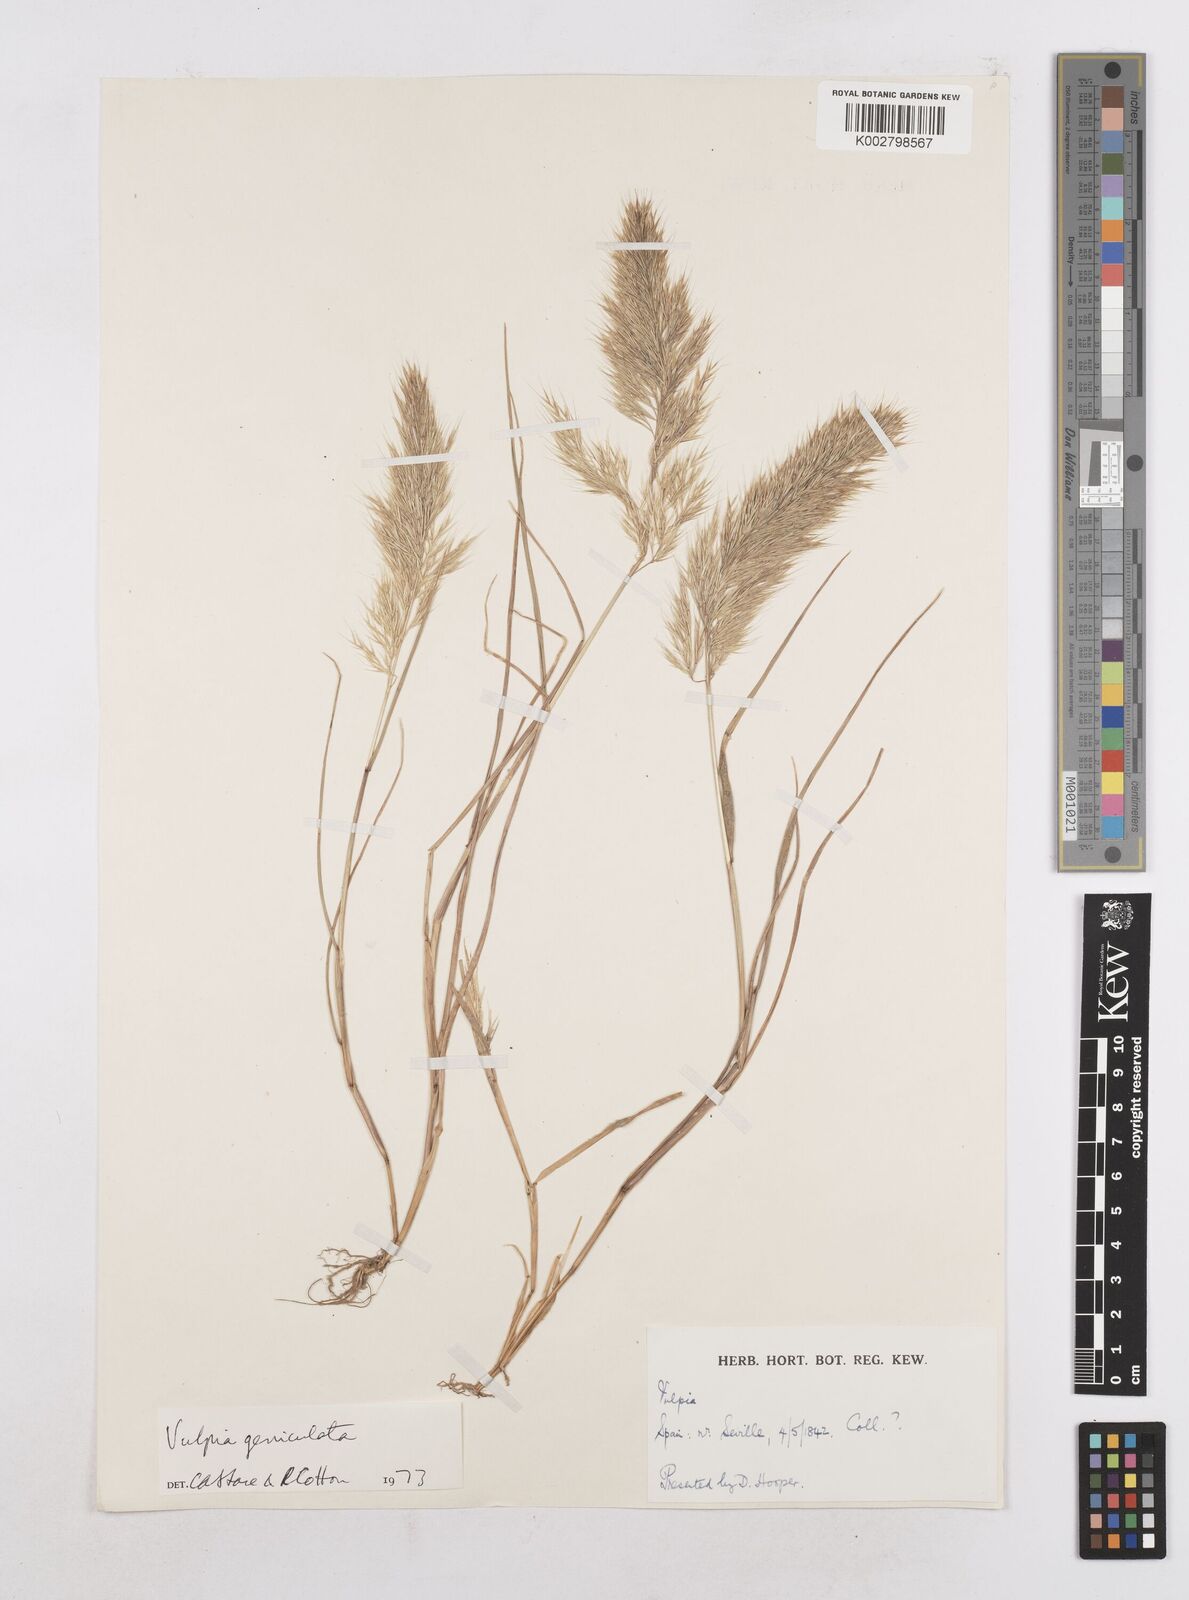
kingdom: Plantae
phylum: Tracheophyta
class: Liliopsida
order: Poales
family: Poaceae
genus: Festuca
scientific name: Festuca geniculata
